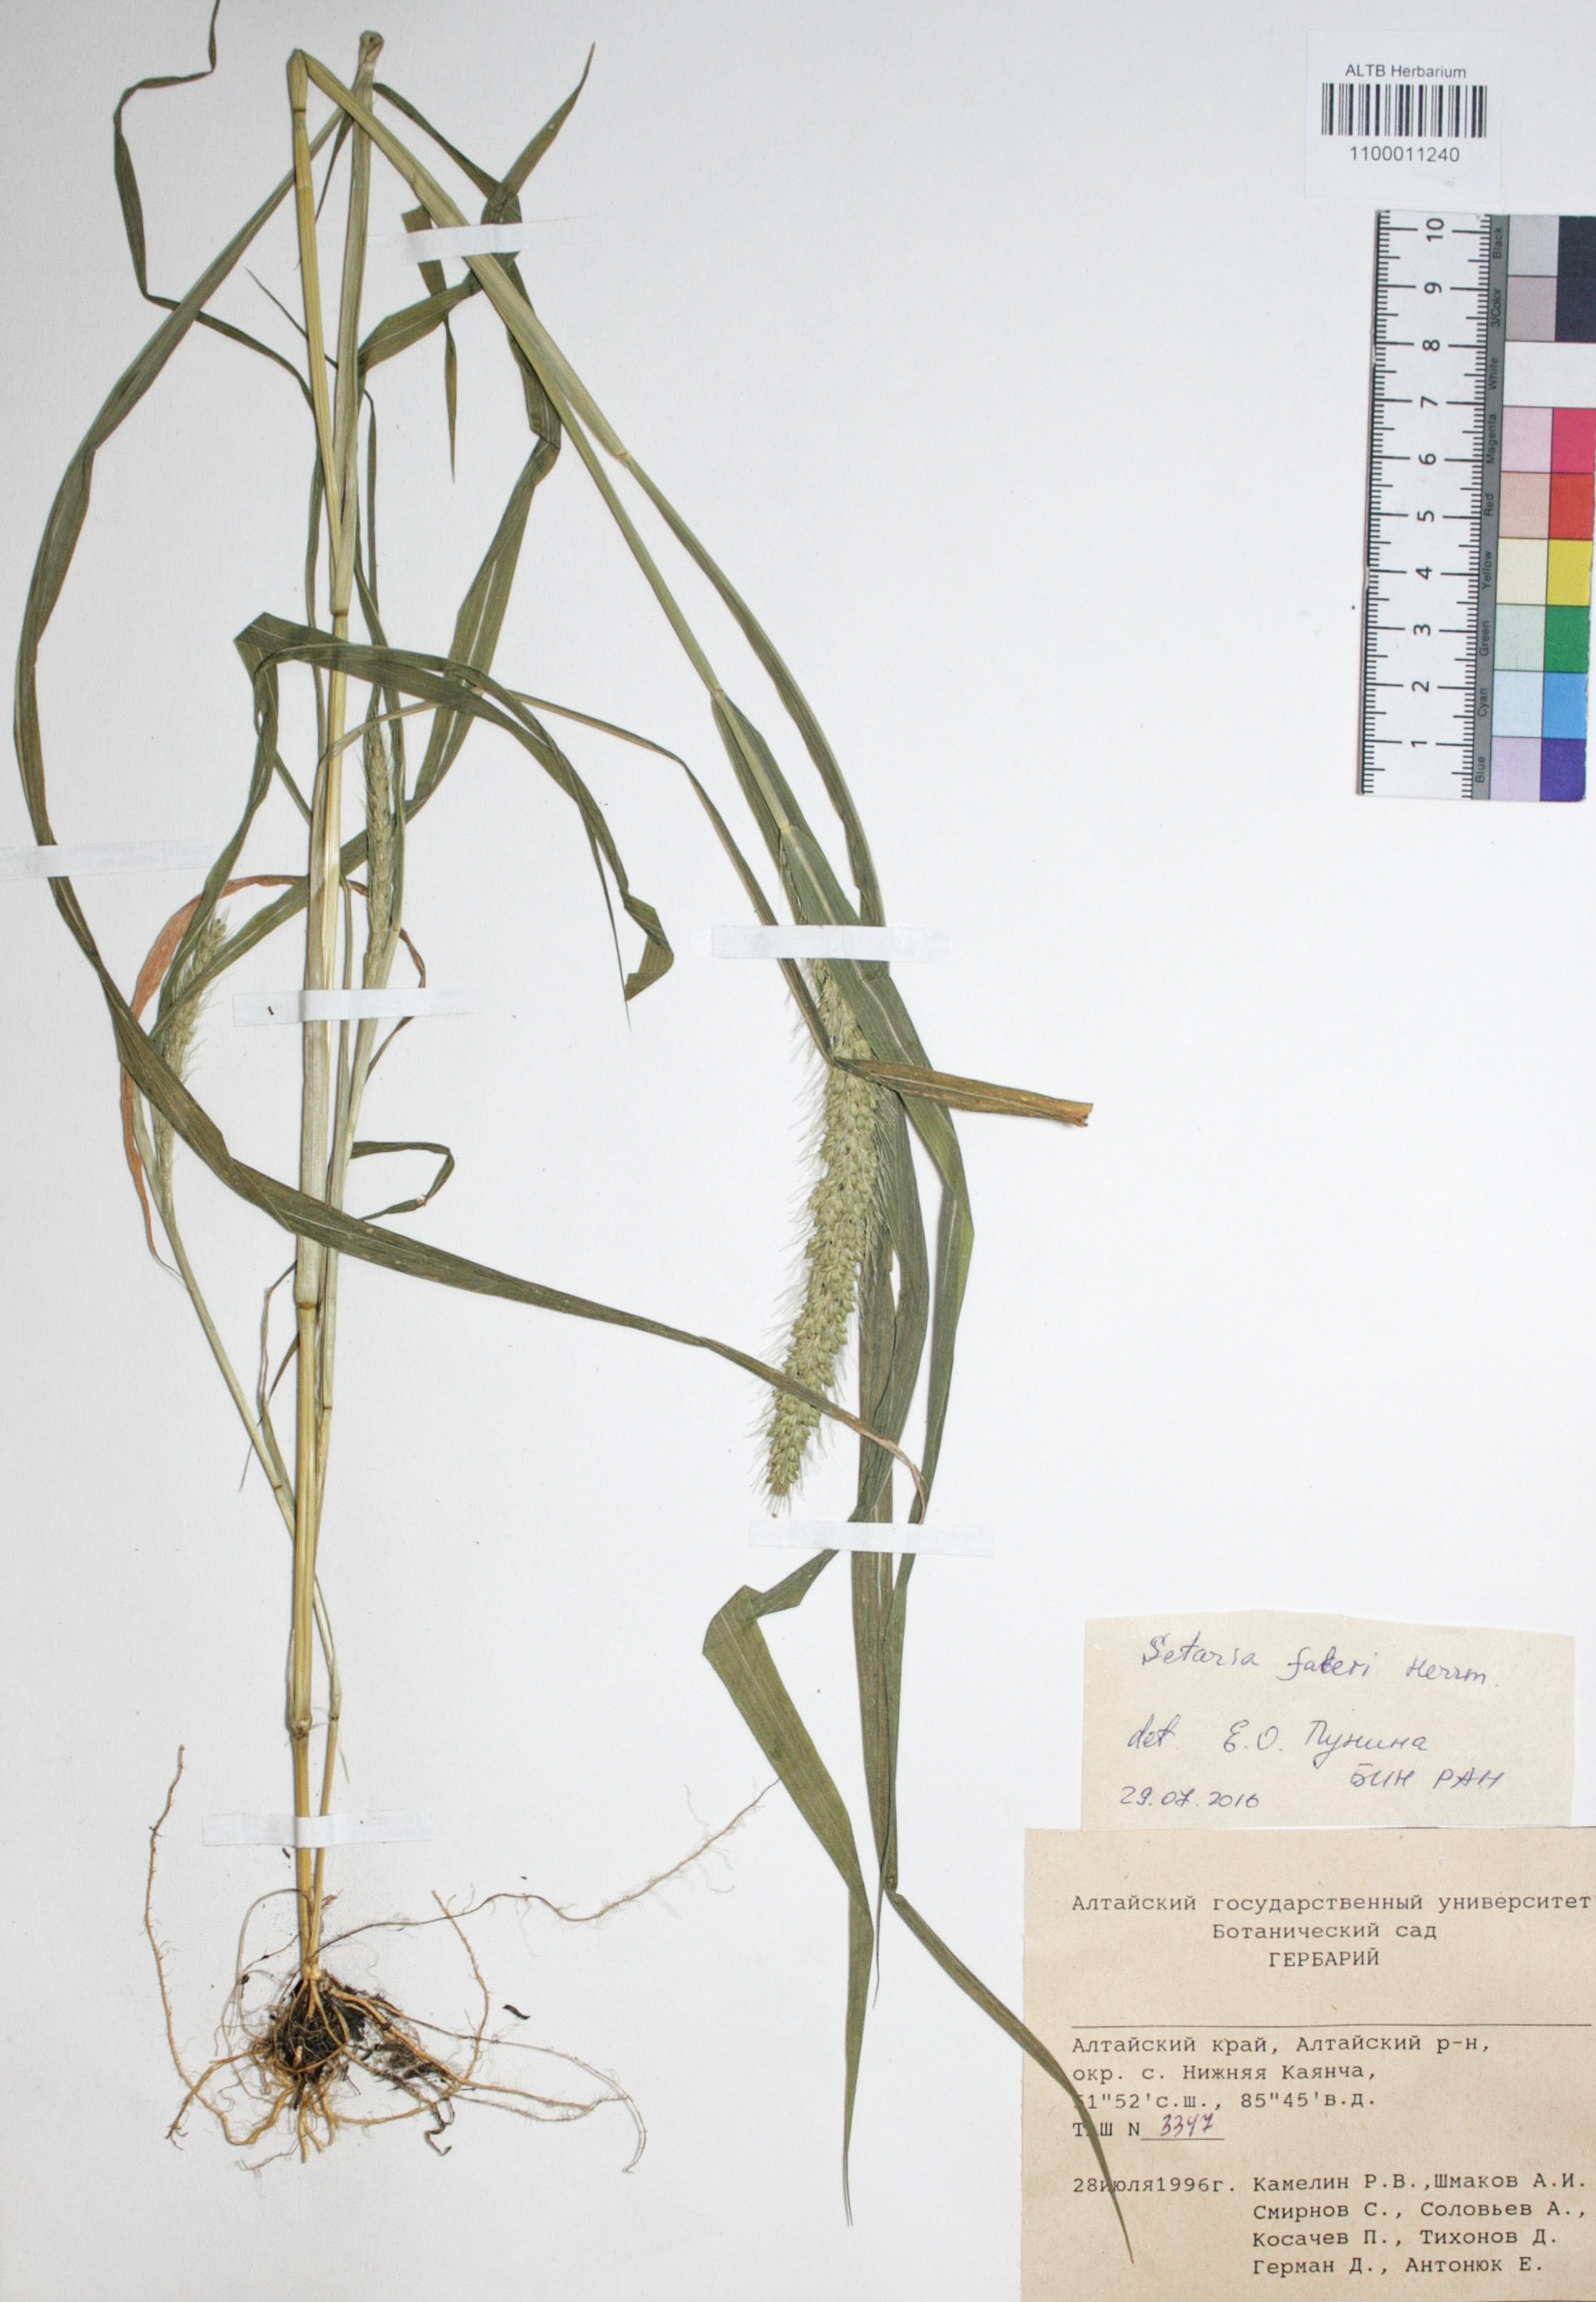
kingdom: Plantae
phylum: Tracheophyta
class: Liliopsida
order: Poales
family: Poaceae
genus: Setaria
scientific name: Setaria faberi
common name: Nodding bristle-grass
